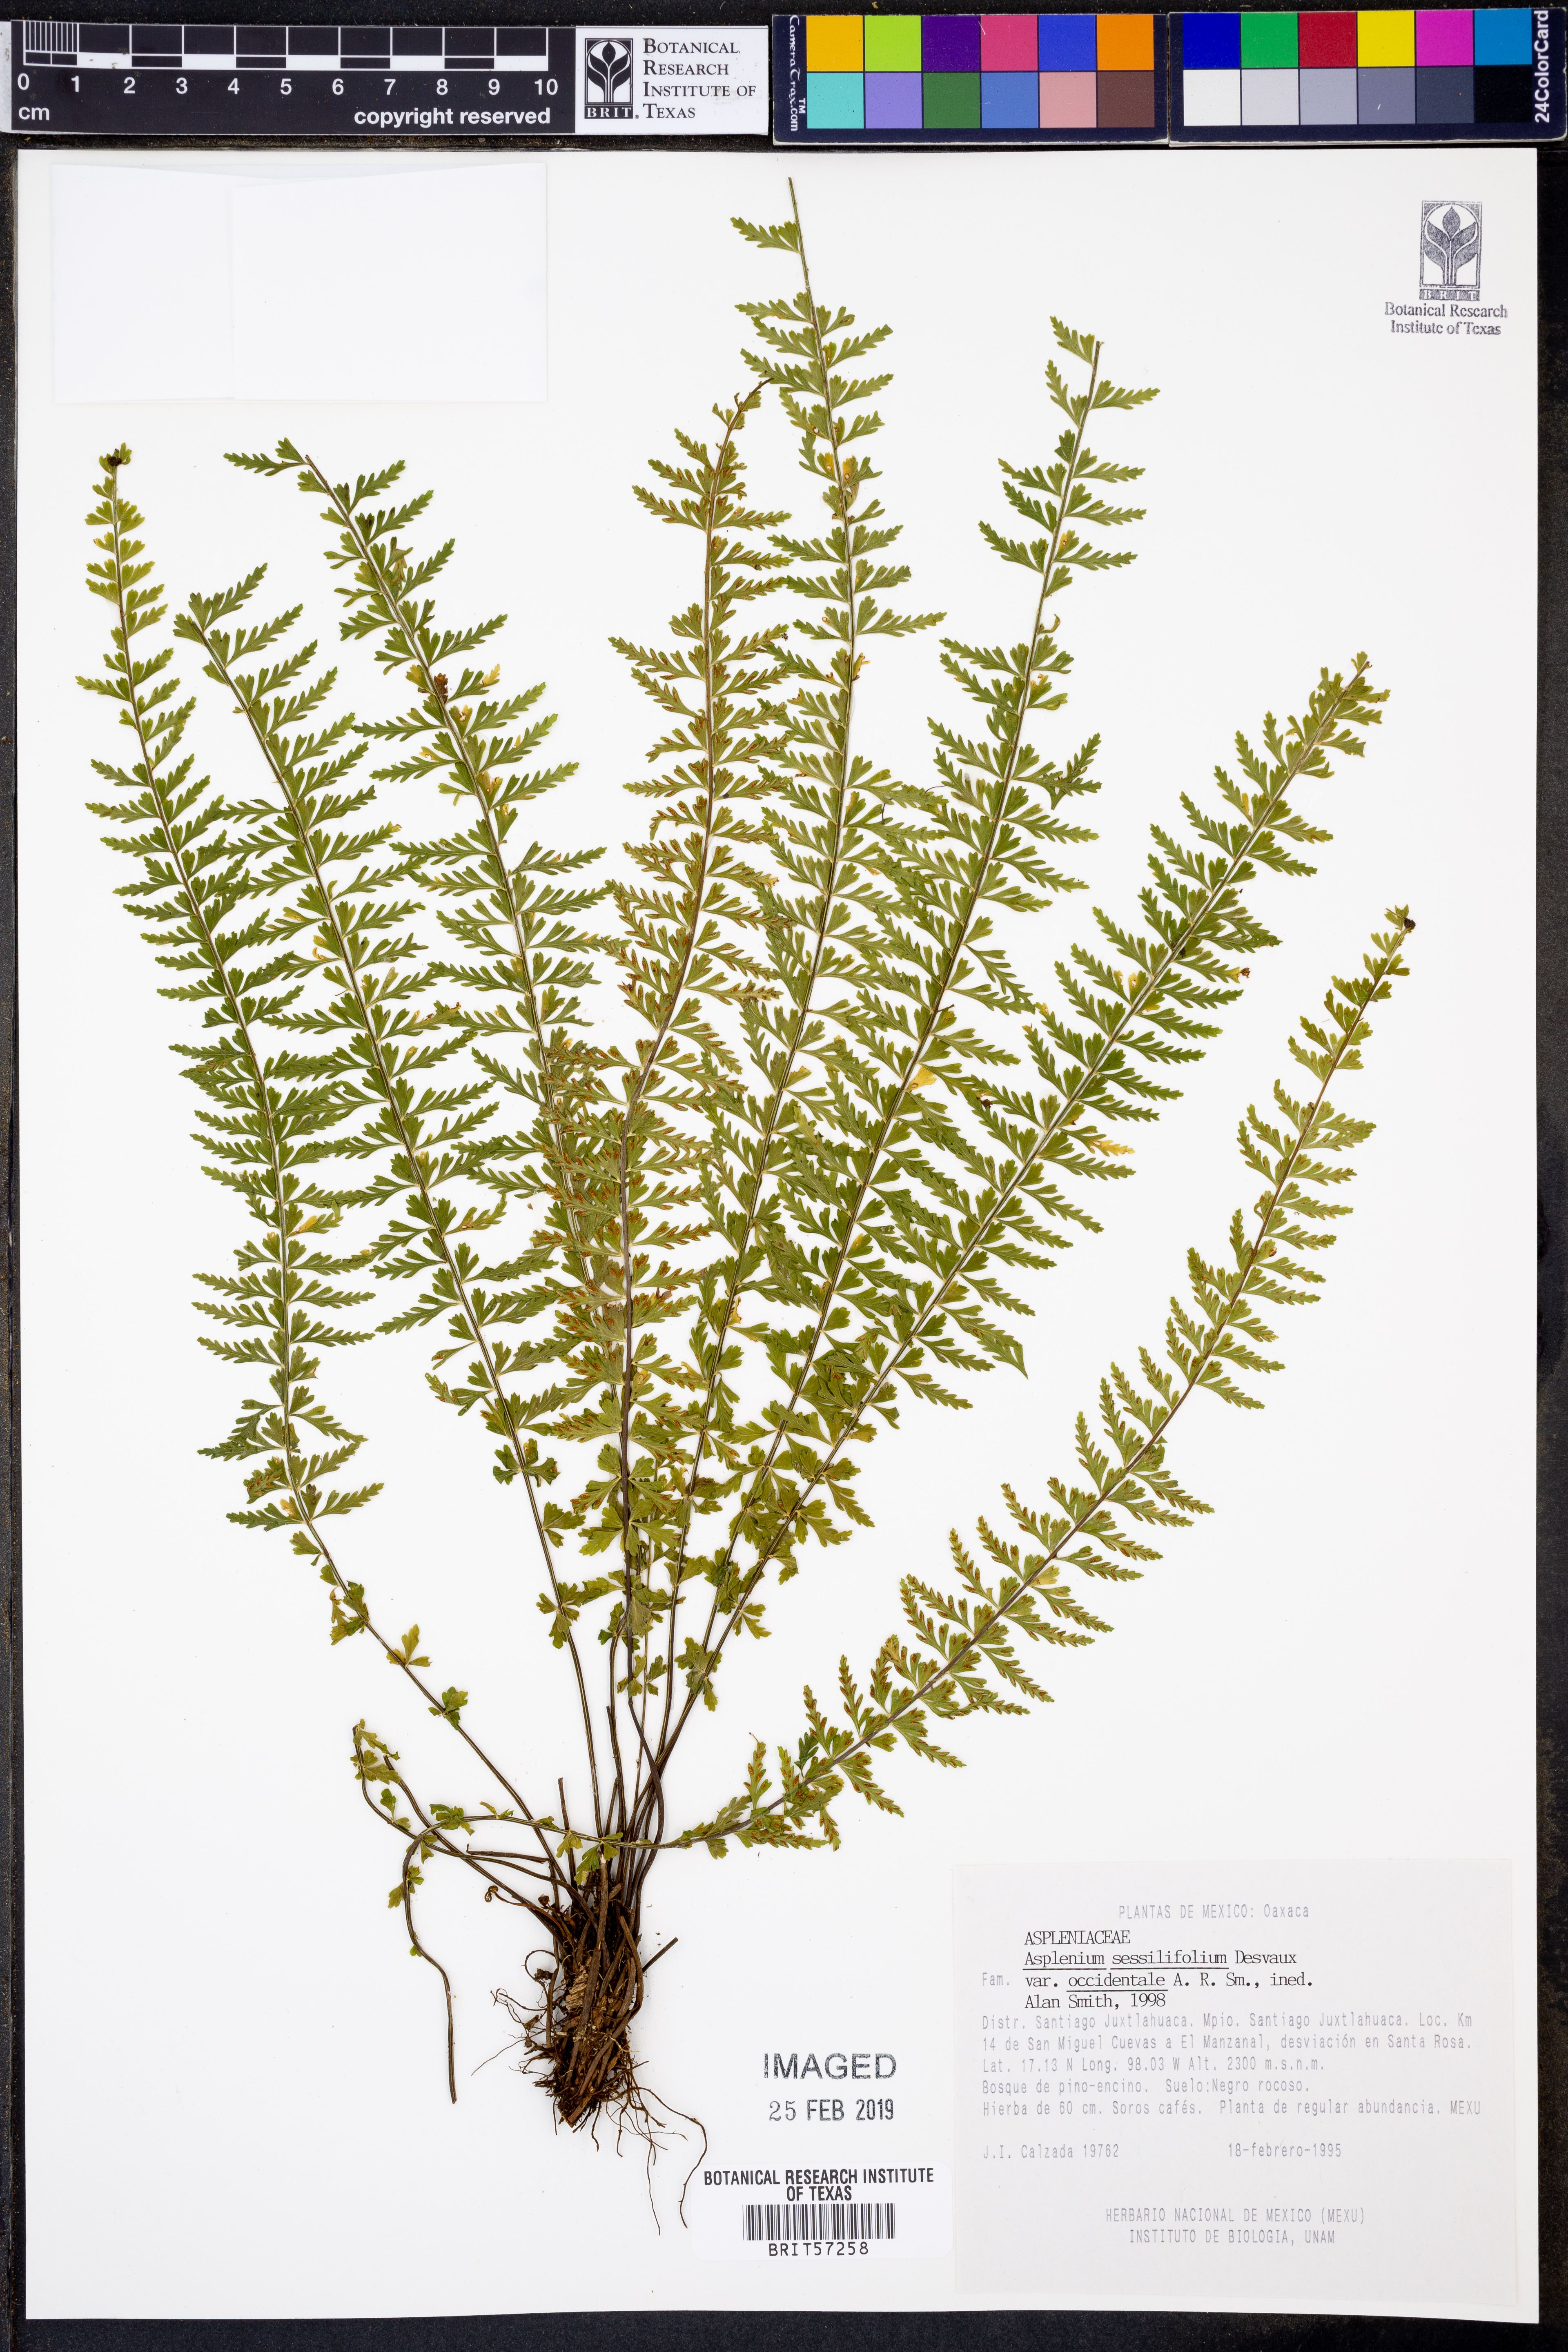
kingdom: Plantae
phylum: Tracheophyta
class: Polypodiopsida
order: Polypodiales
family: Aspleniaceae
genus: Asplenium
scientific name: Asplenium sessilifolium
